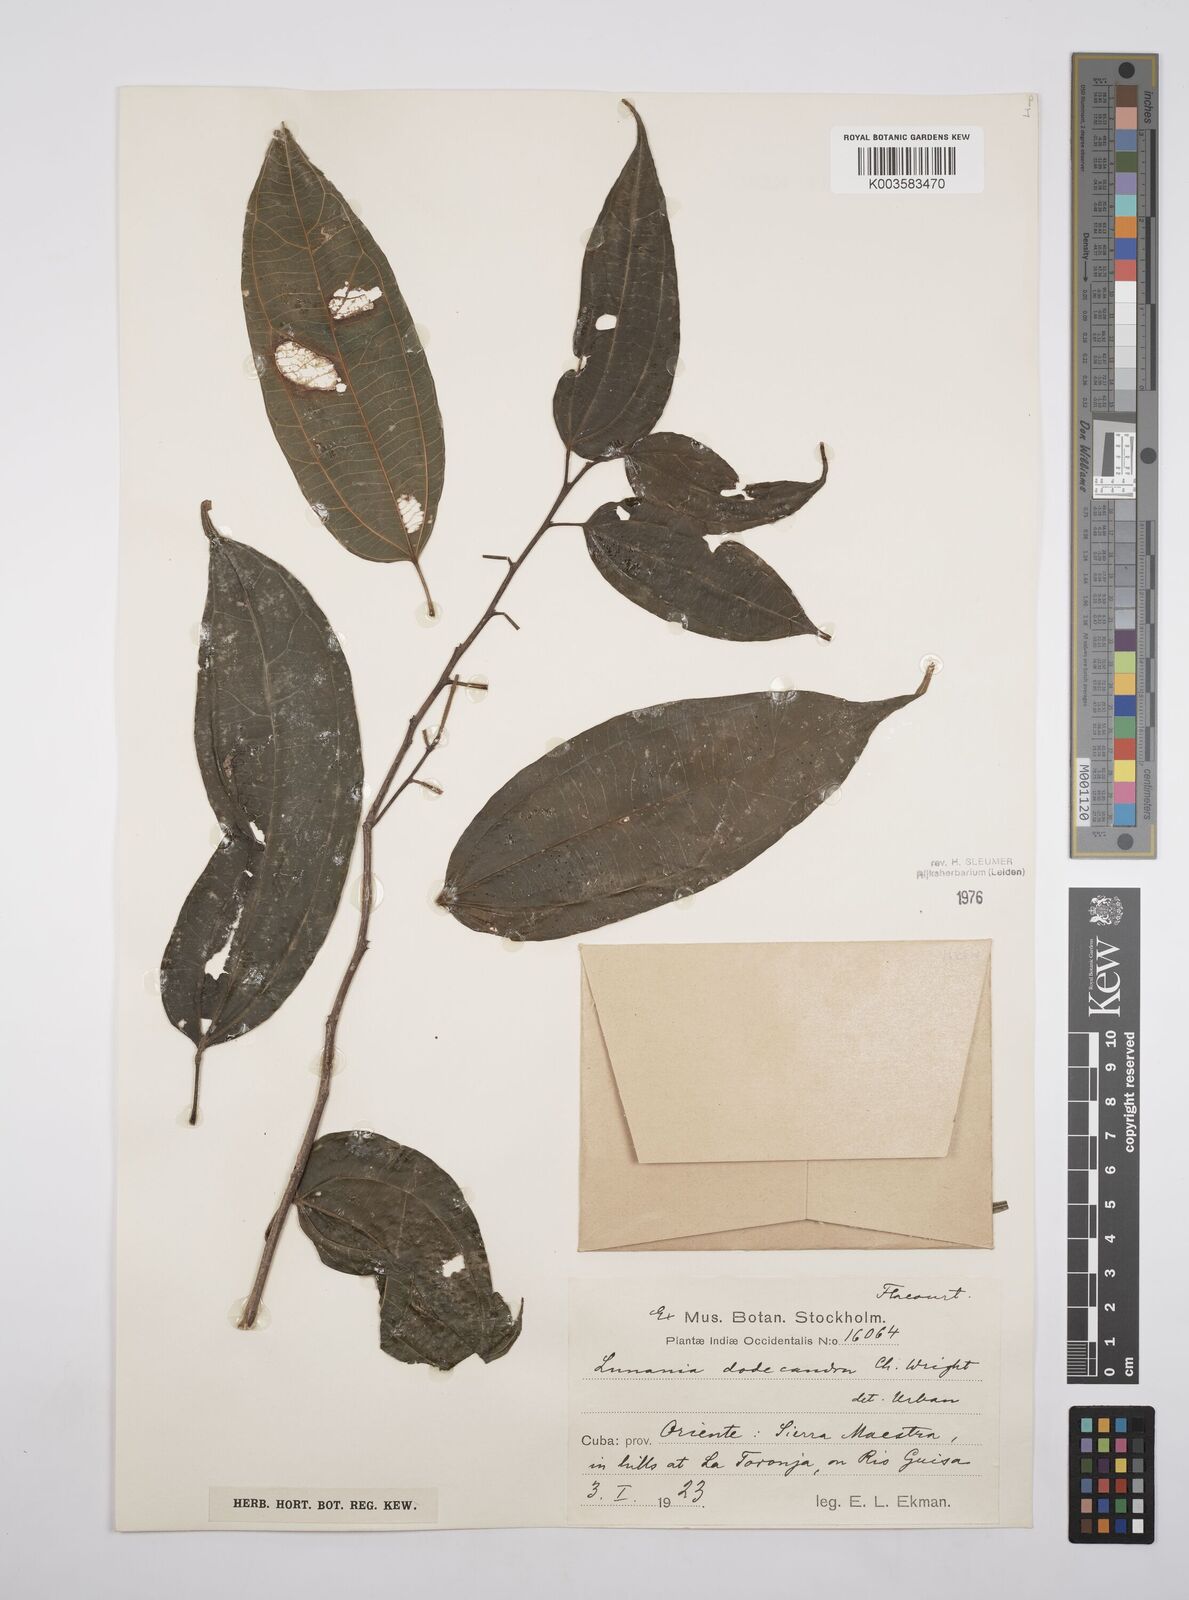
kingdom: Plantae
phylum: Tracheophyta
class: Magnoliopsida
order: Malpighiales
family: Salicaceae
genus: Lunania
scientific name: Lunania dodecandra
